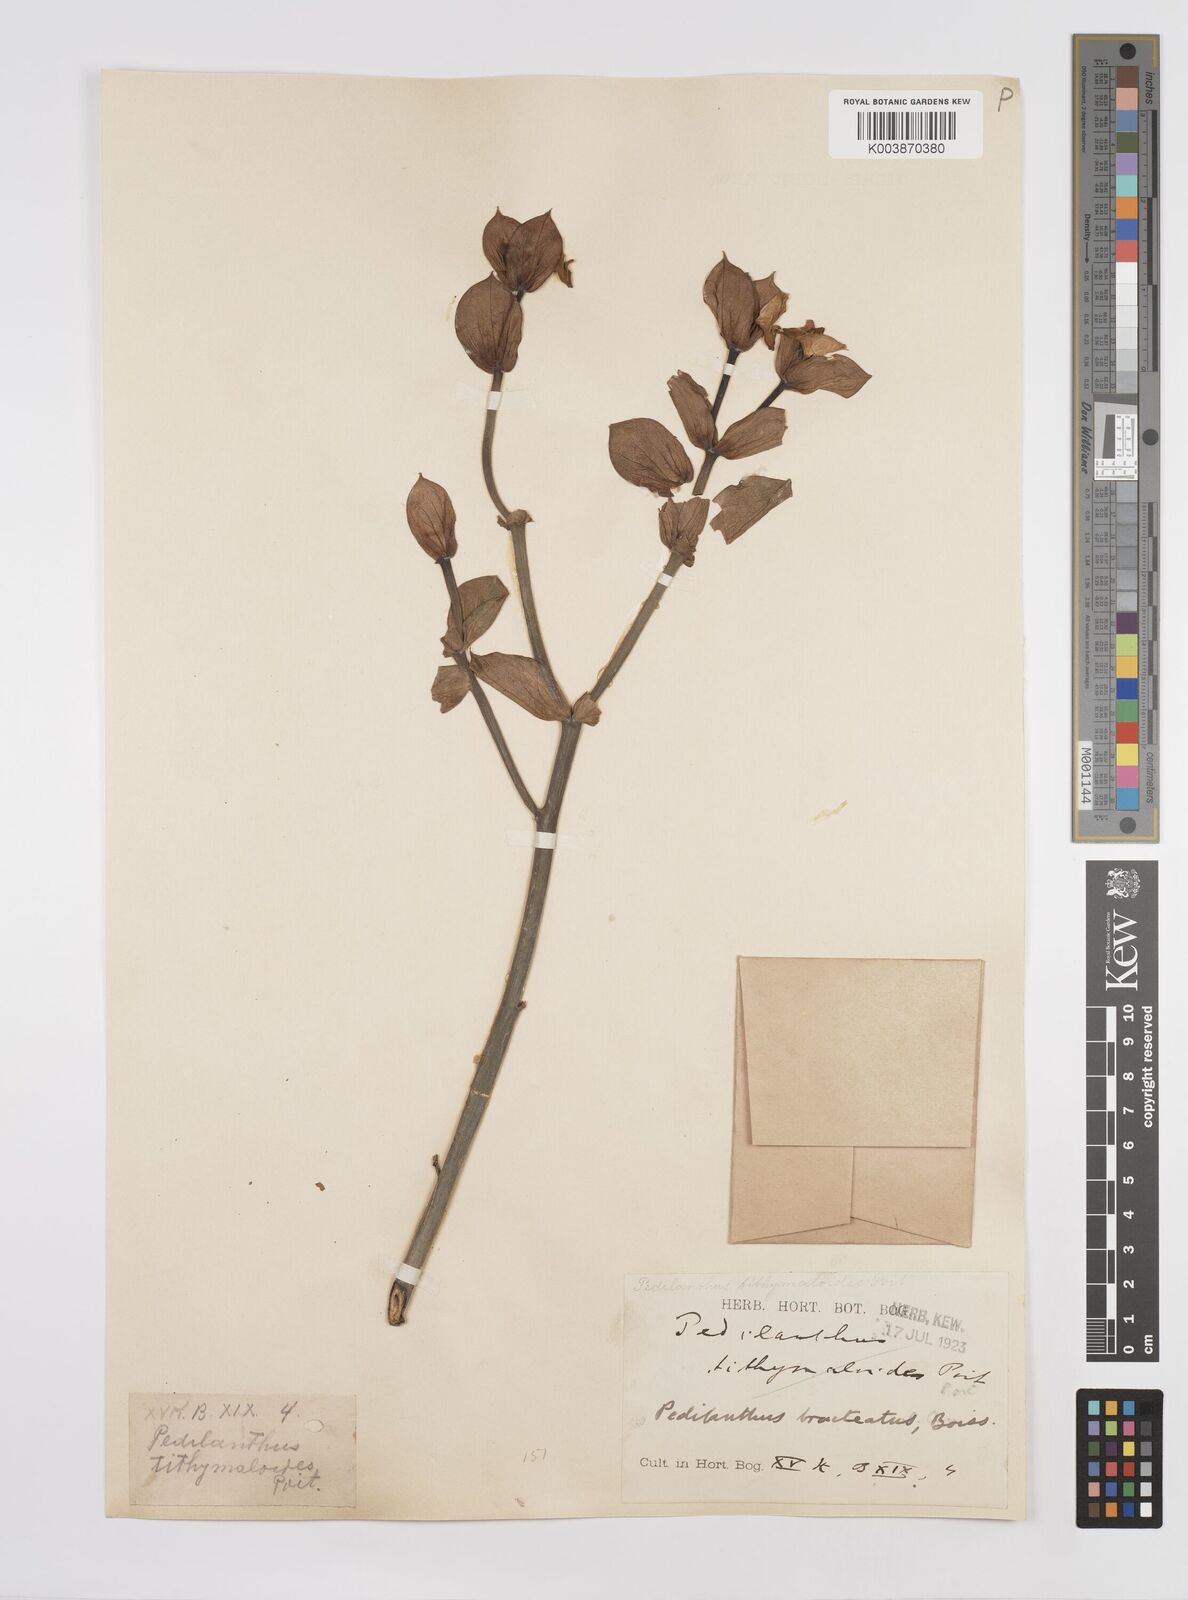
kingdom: Plantae
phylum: Tracheophyta
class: Magnoliopsida
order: Malpighiales
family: Euphorbiaceae
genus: Euphorbia
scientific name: Euphorbia tithymaloides
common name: Slipperplant
